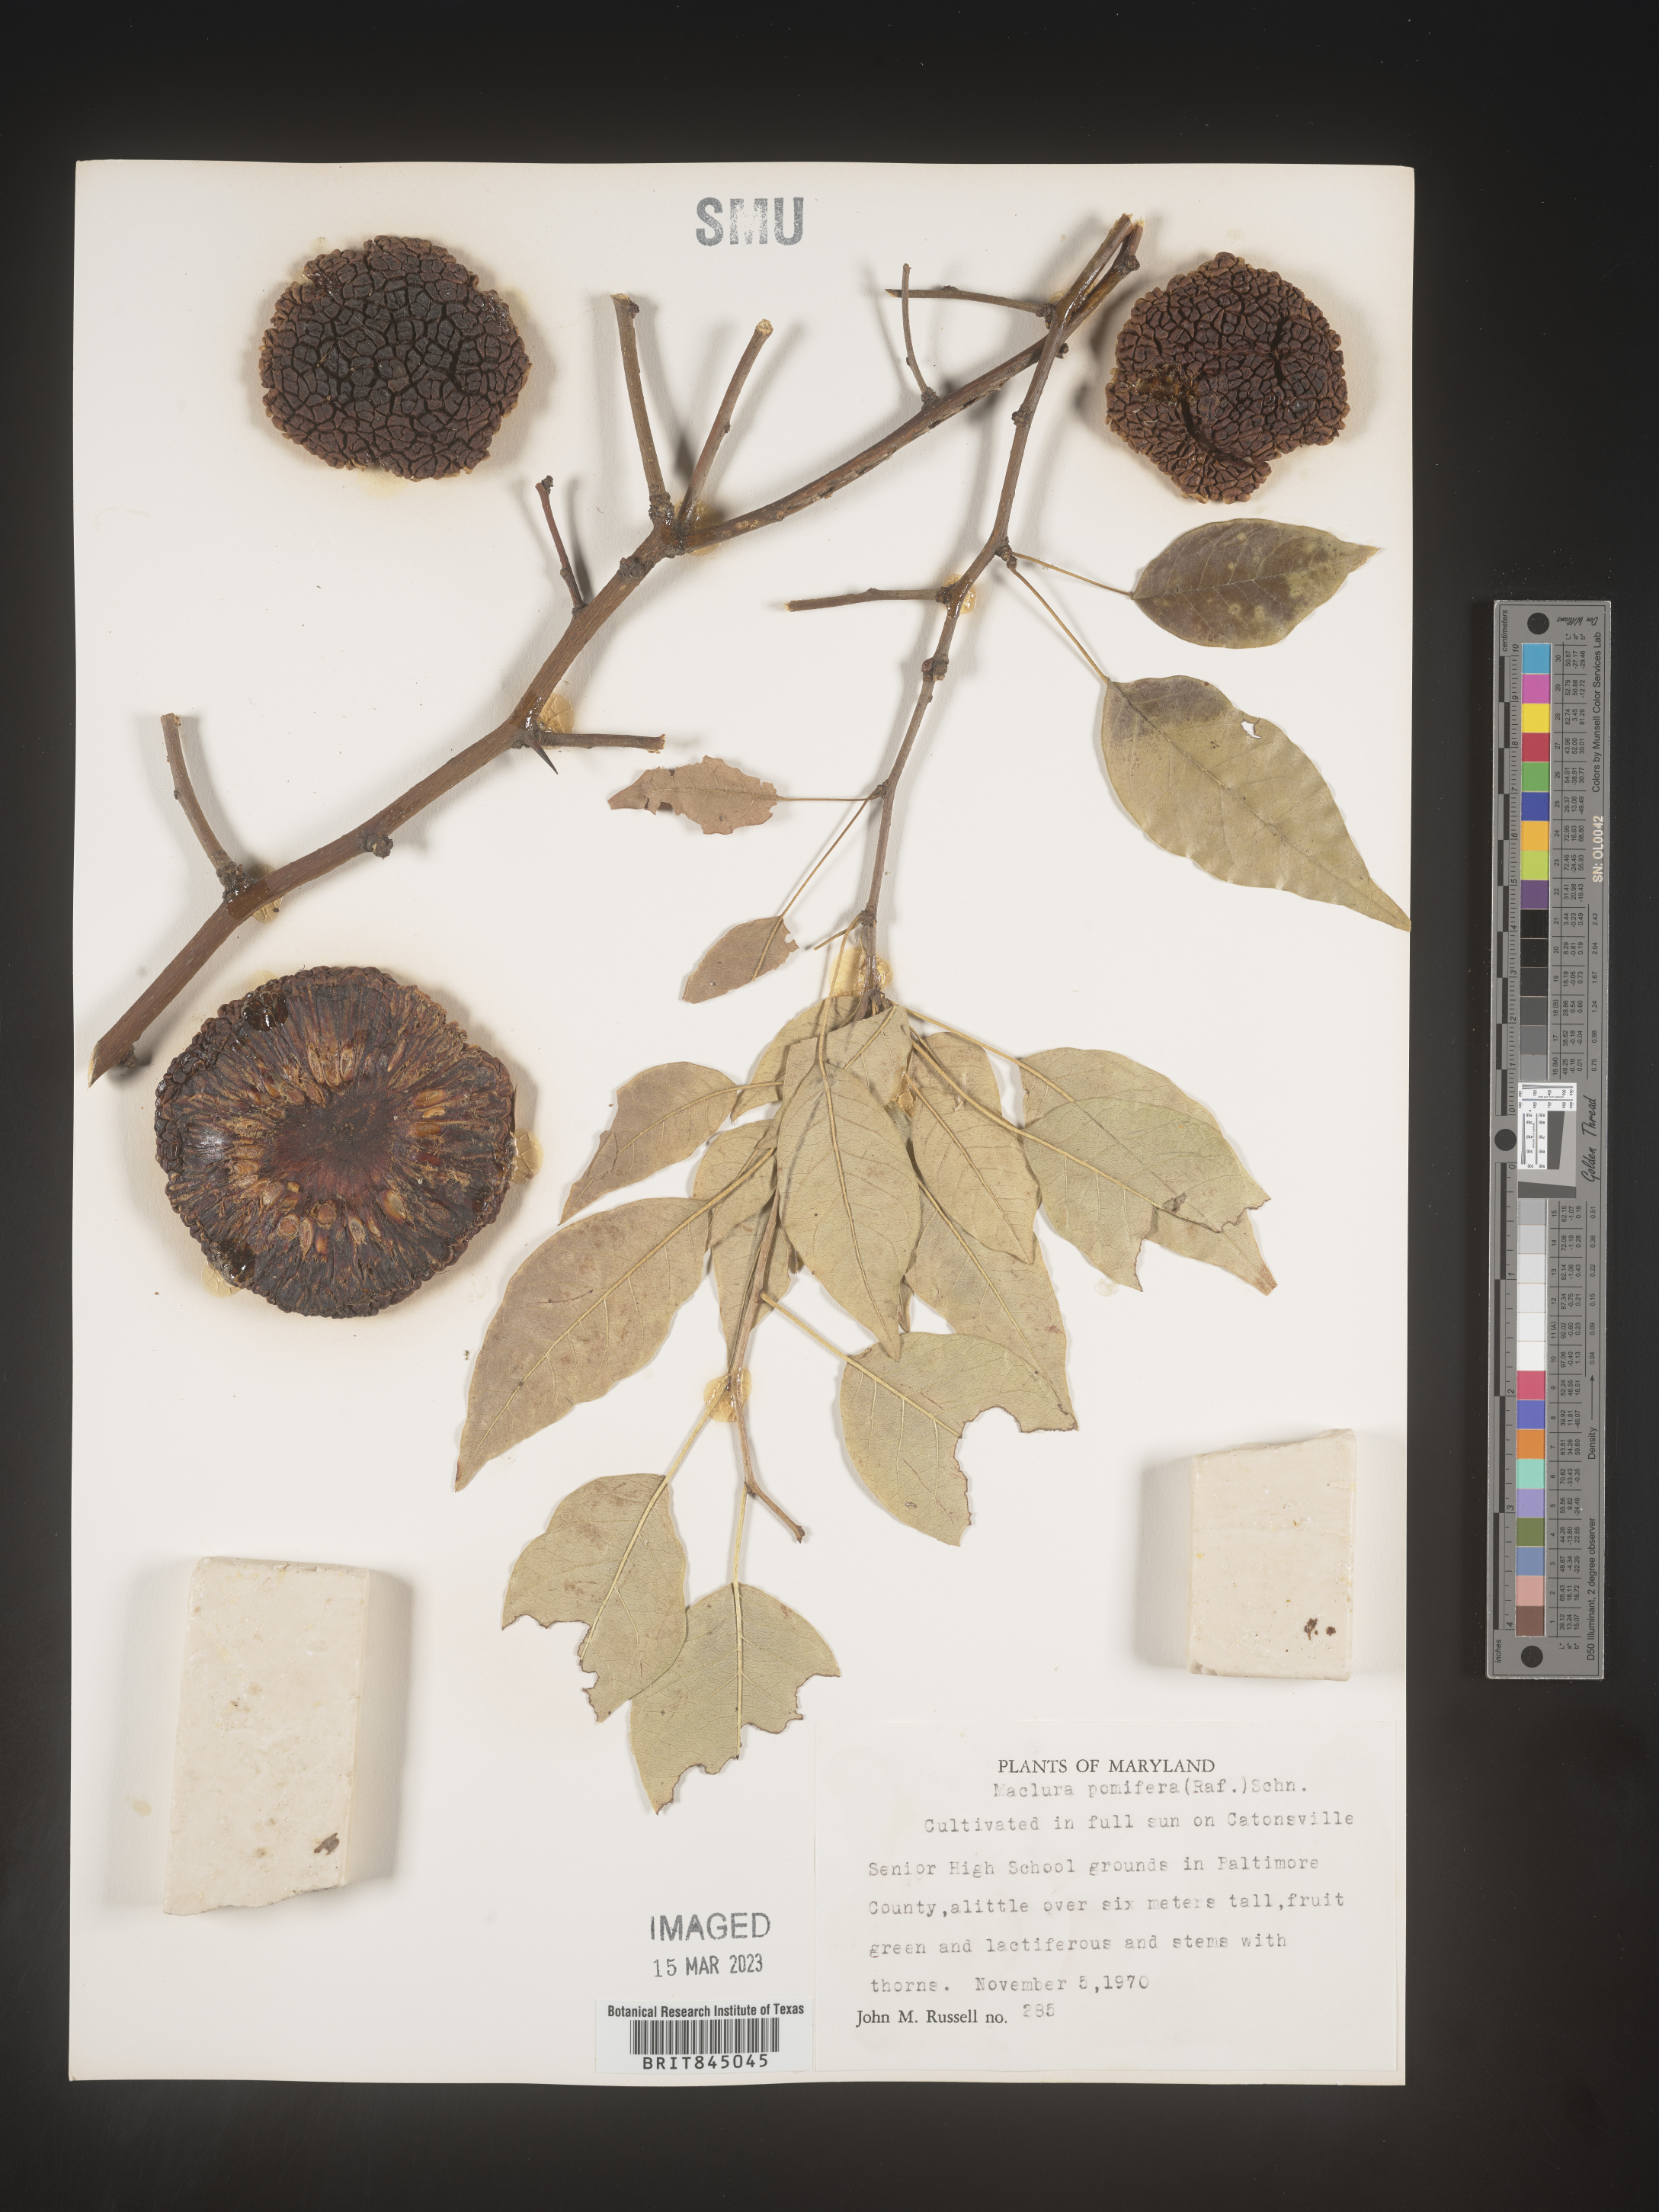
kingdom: Plantae
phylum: Tracheophyta
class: Magnoliopsida
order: Rosales
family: Moraceae
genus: Maclura
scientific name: Maclura pomifera
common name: Osage-orange
